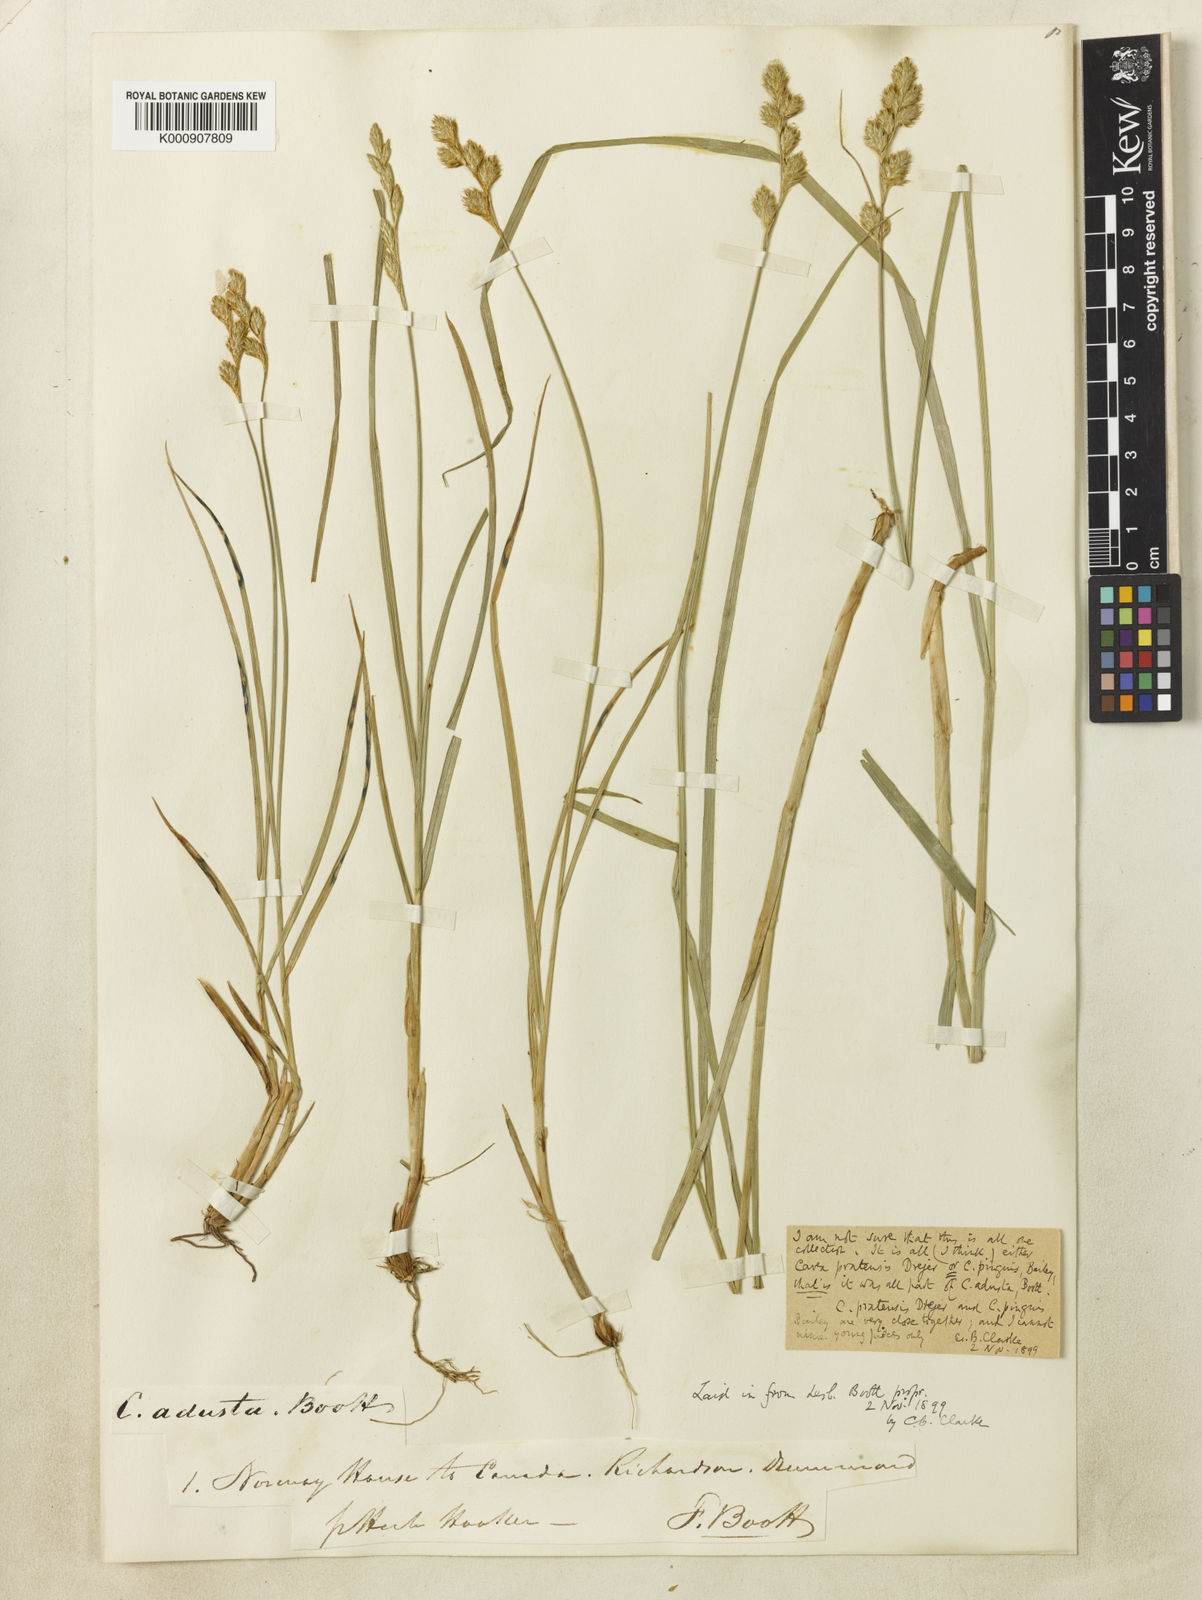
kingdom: Plantae
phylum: Tracheophyta
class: Liliopsida
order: Poales
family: Cyperaceae
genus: Carex
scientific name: Carex adusta
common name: Browned sedge
